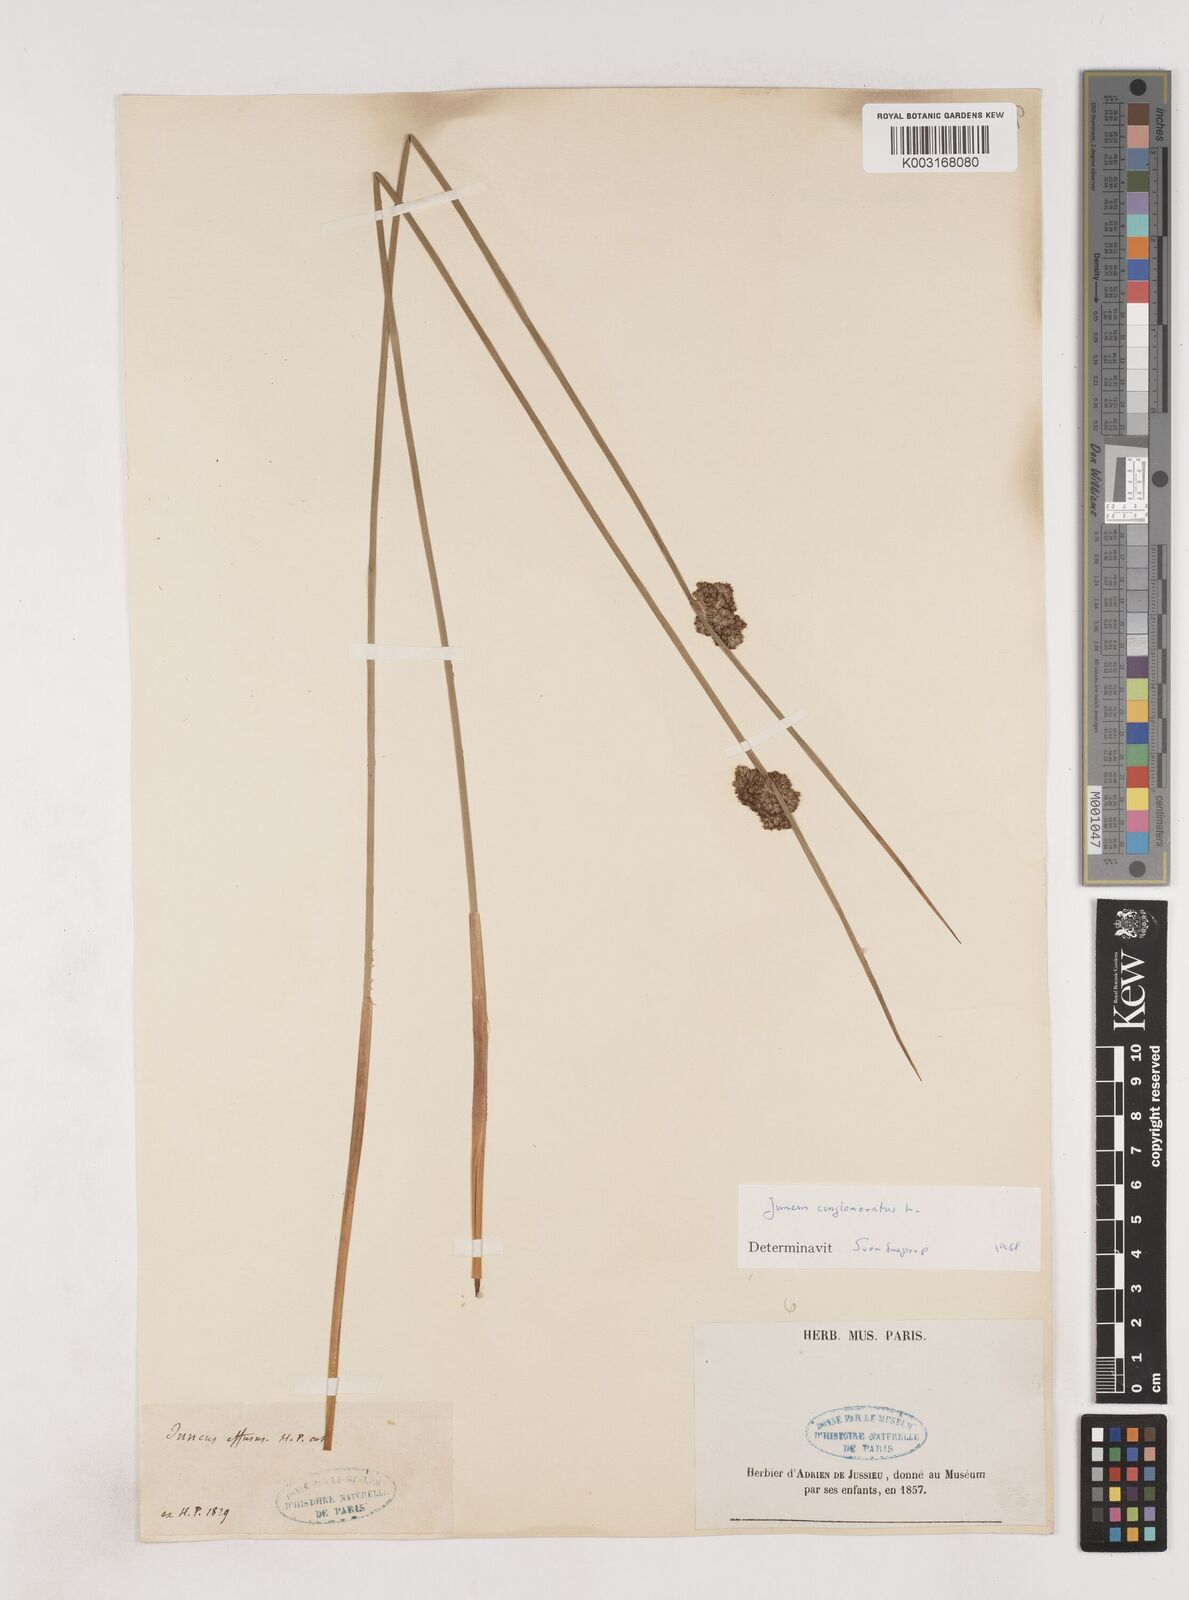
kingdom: Plantae
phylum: Tracheophyta
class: Liliopsida
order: Poales
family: Juncaceae
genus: Juncus
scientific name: Juncus conglomeratus
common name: Compact rush
